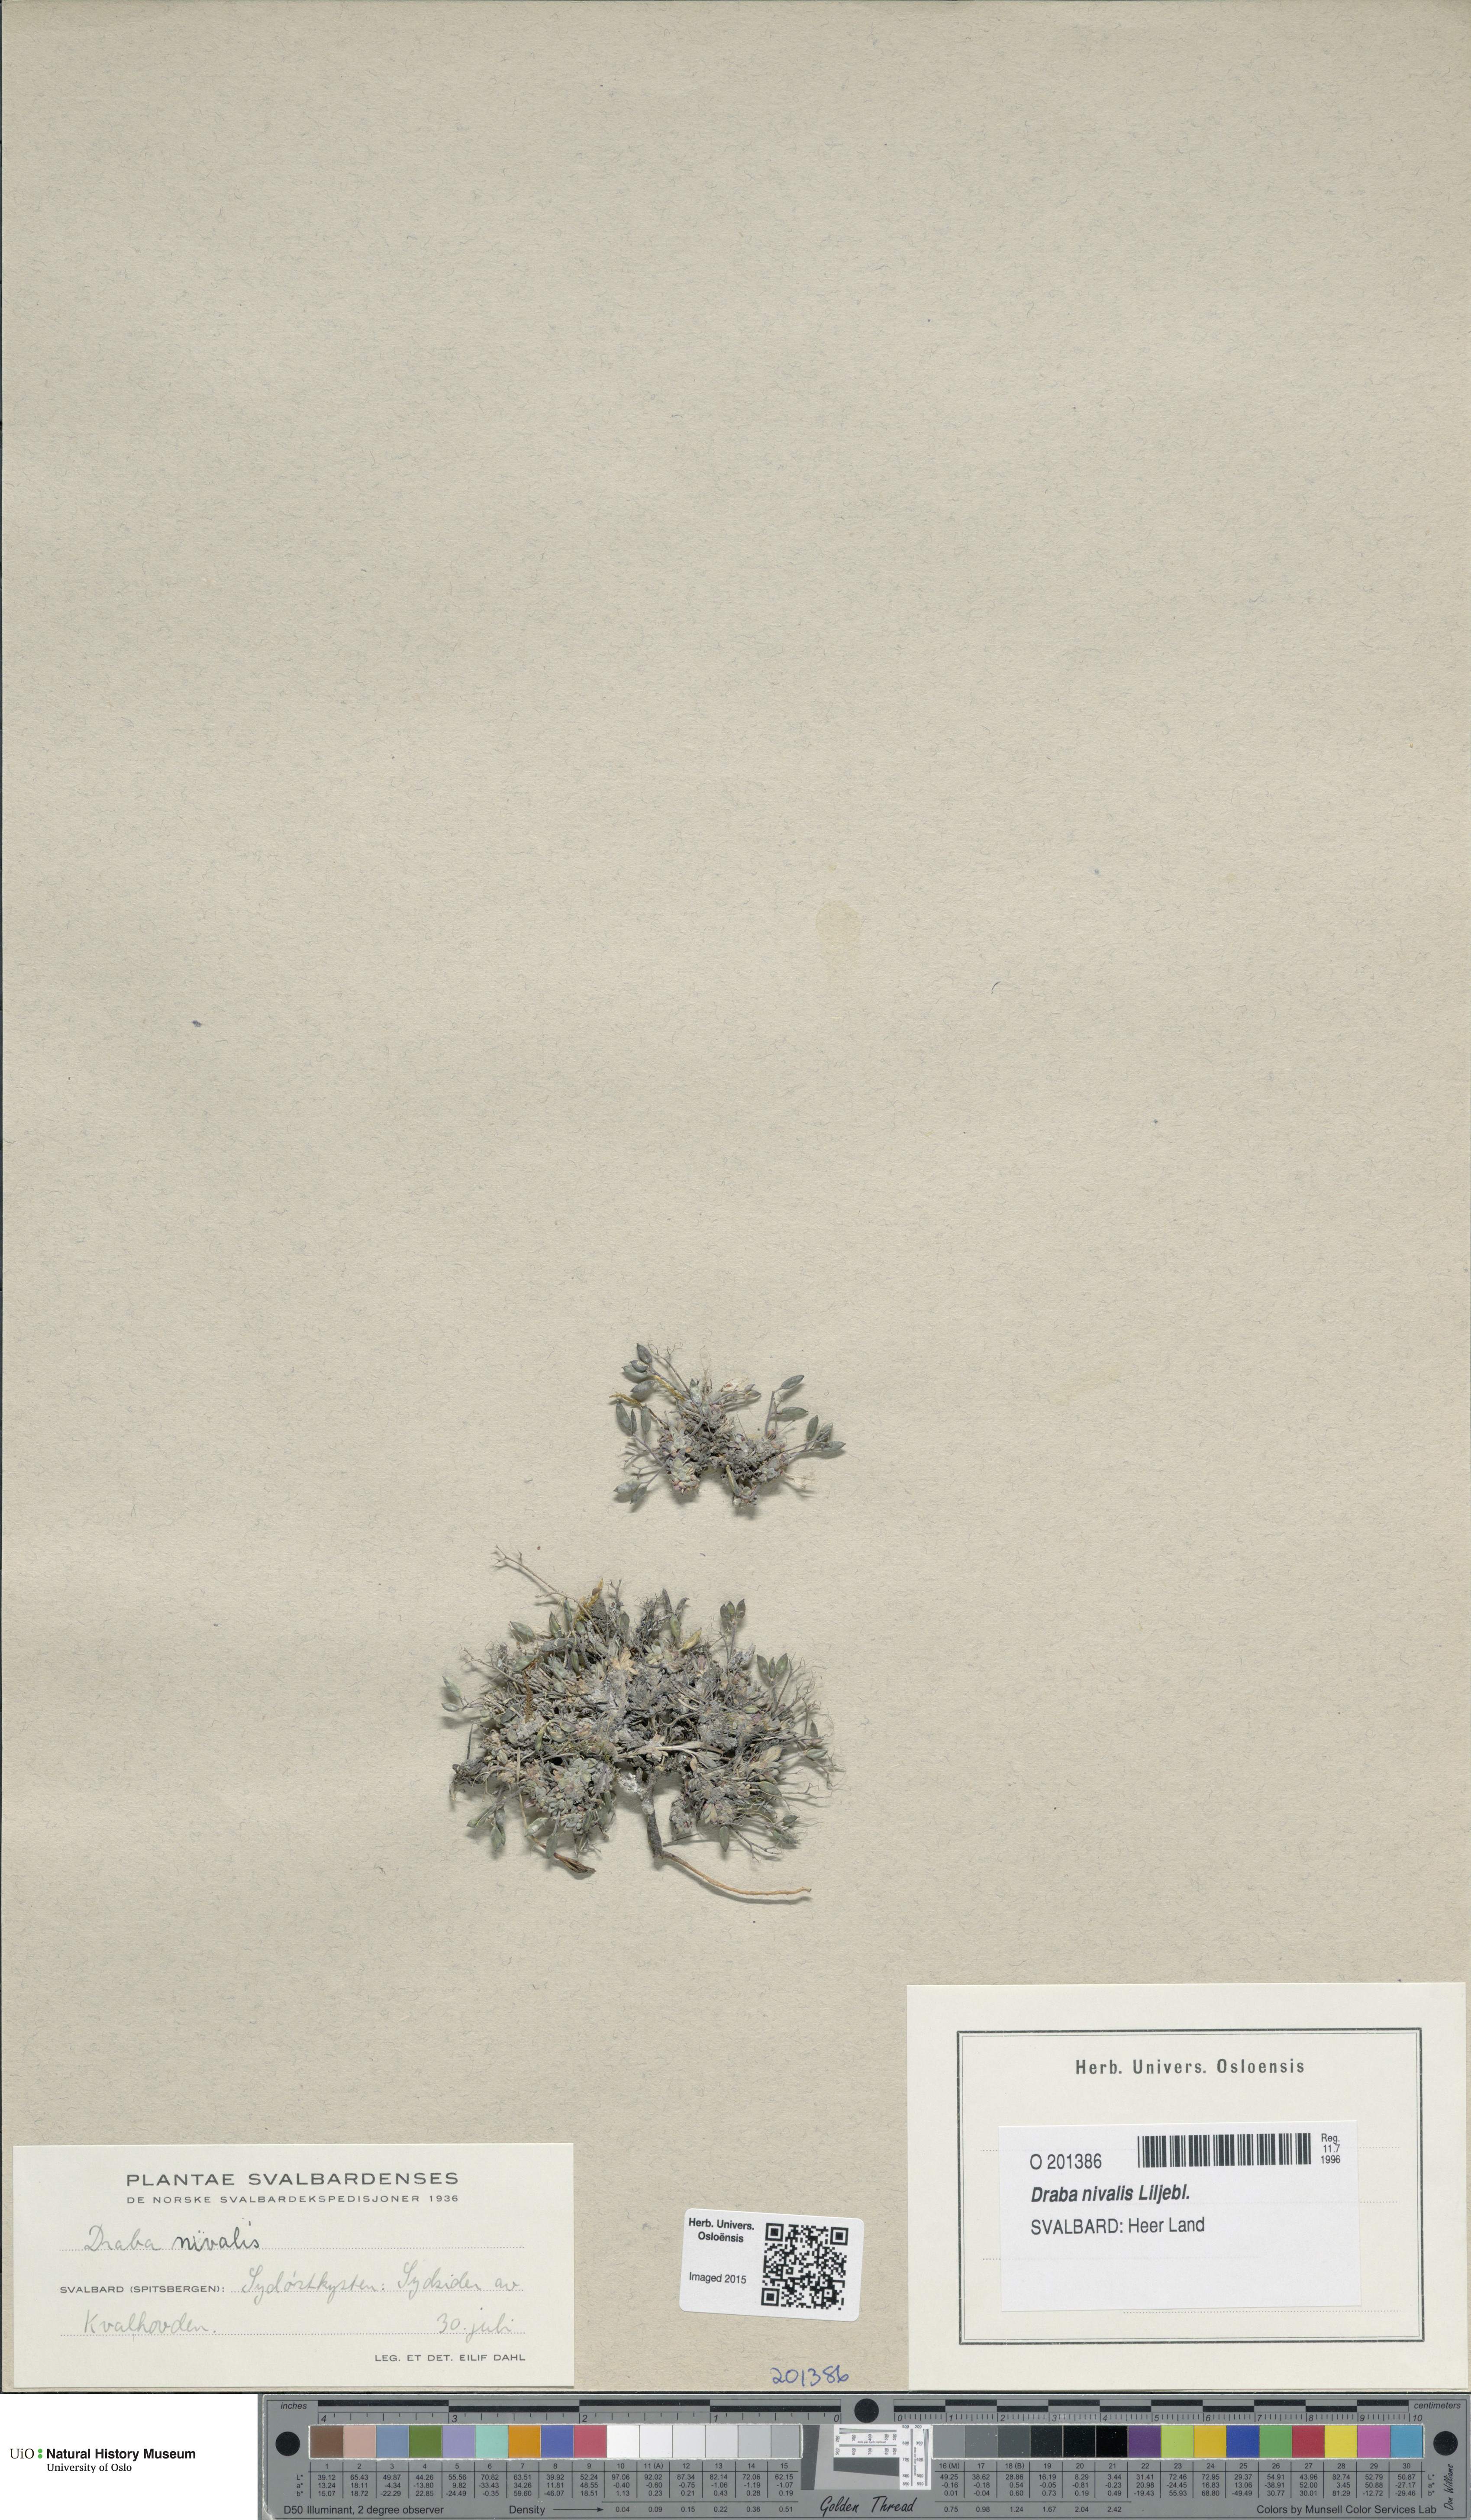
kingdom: Plantae
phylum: Tracheophyta
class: Magnoliopsida
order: Brassicales
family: Brassicaceae
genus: Draba
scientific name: Draba nivalis
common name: Snow draba
